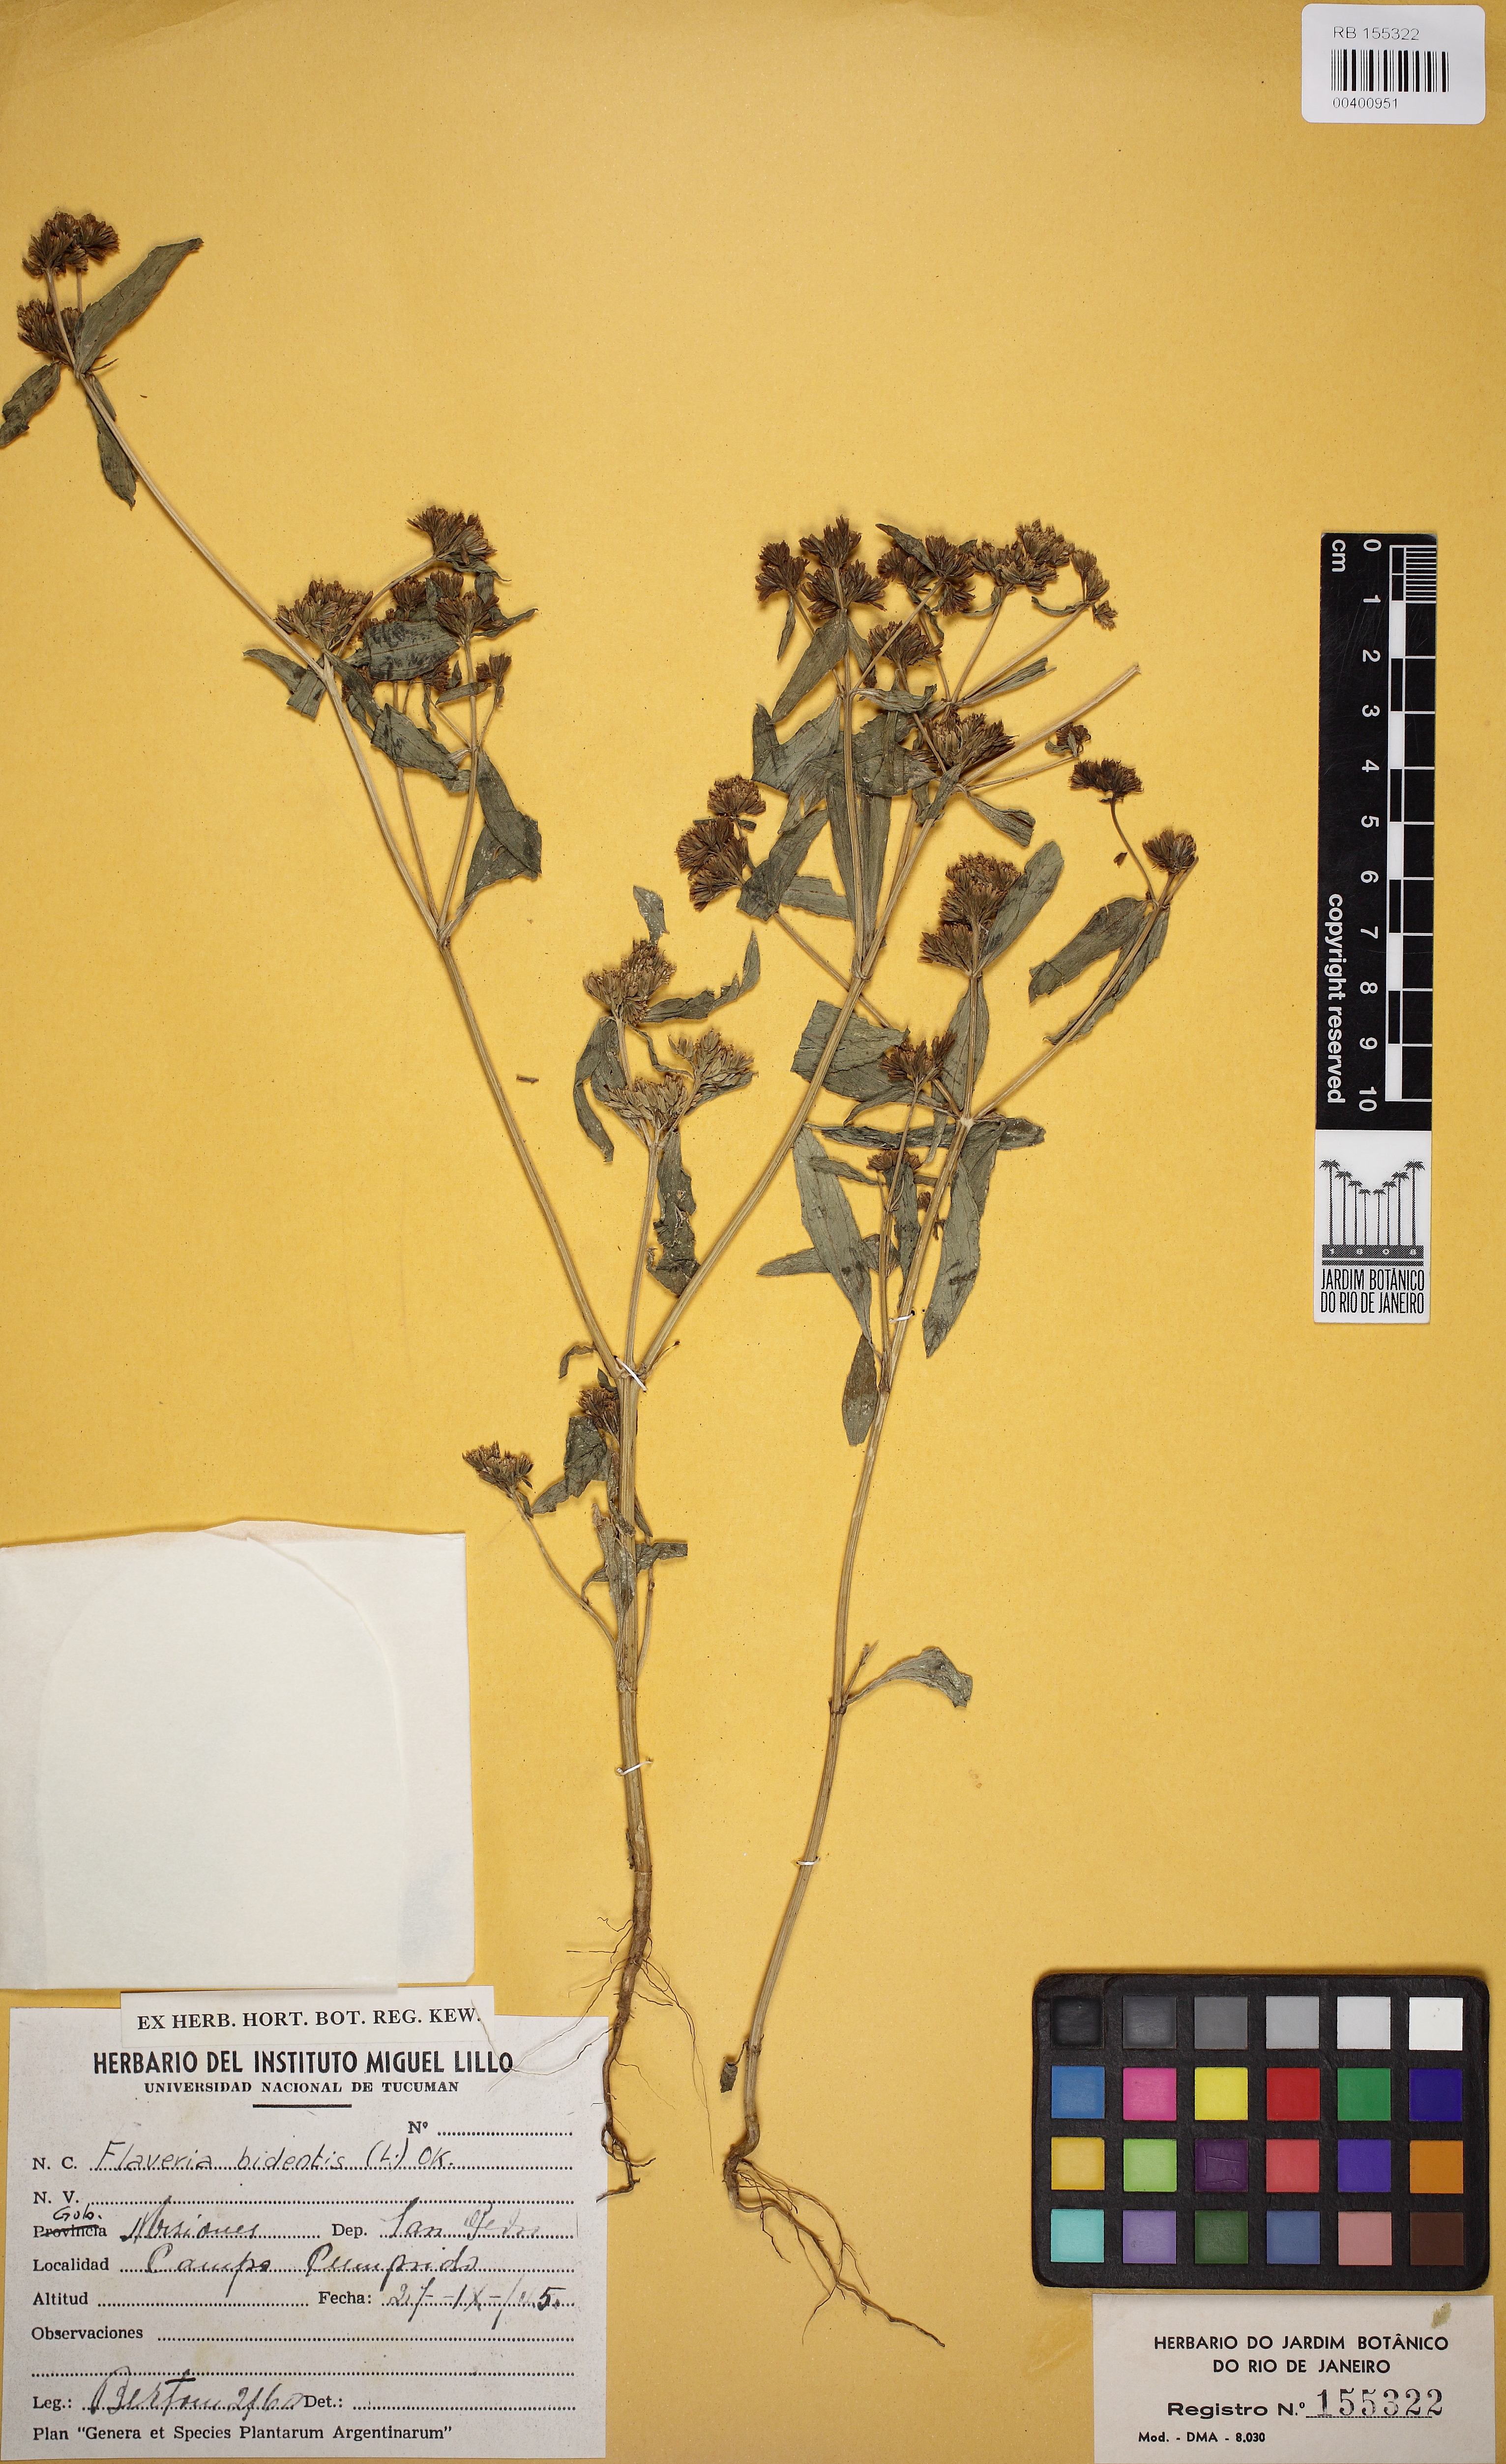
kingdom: Plantae
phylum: Tracheophyta
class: Magnoliopsida
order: Asterales
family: Asteraceae
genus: Flaveria
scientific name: Flaveria bidentis
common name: Coastal plain yellowtops
